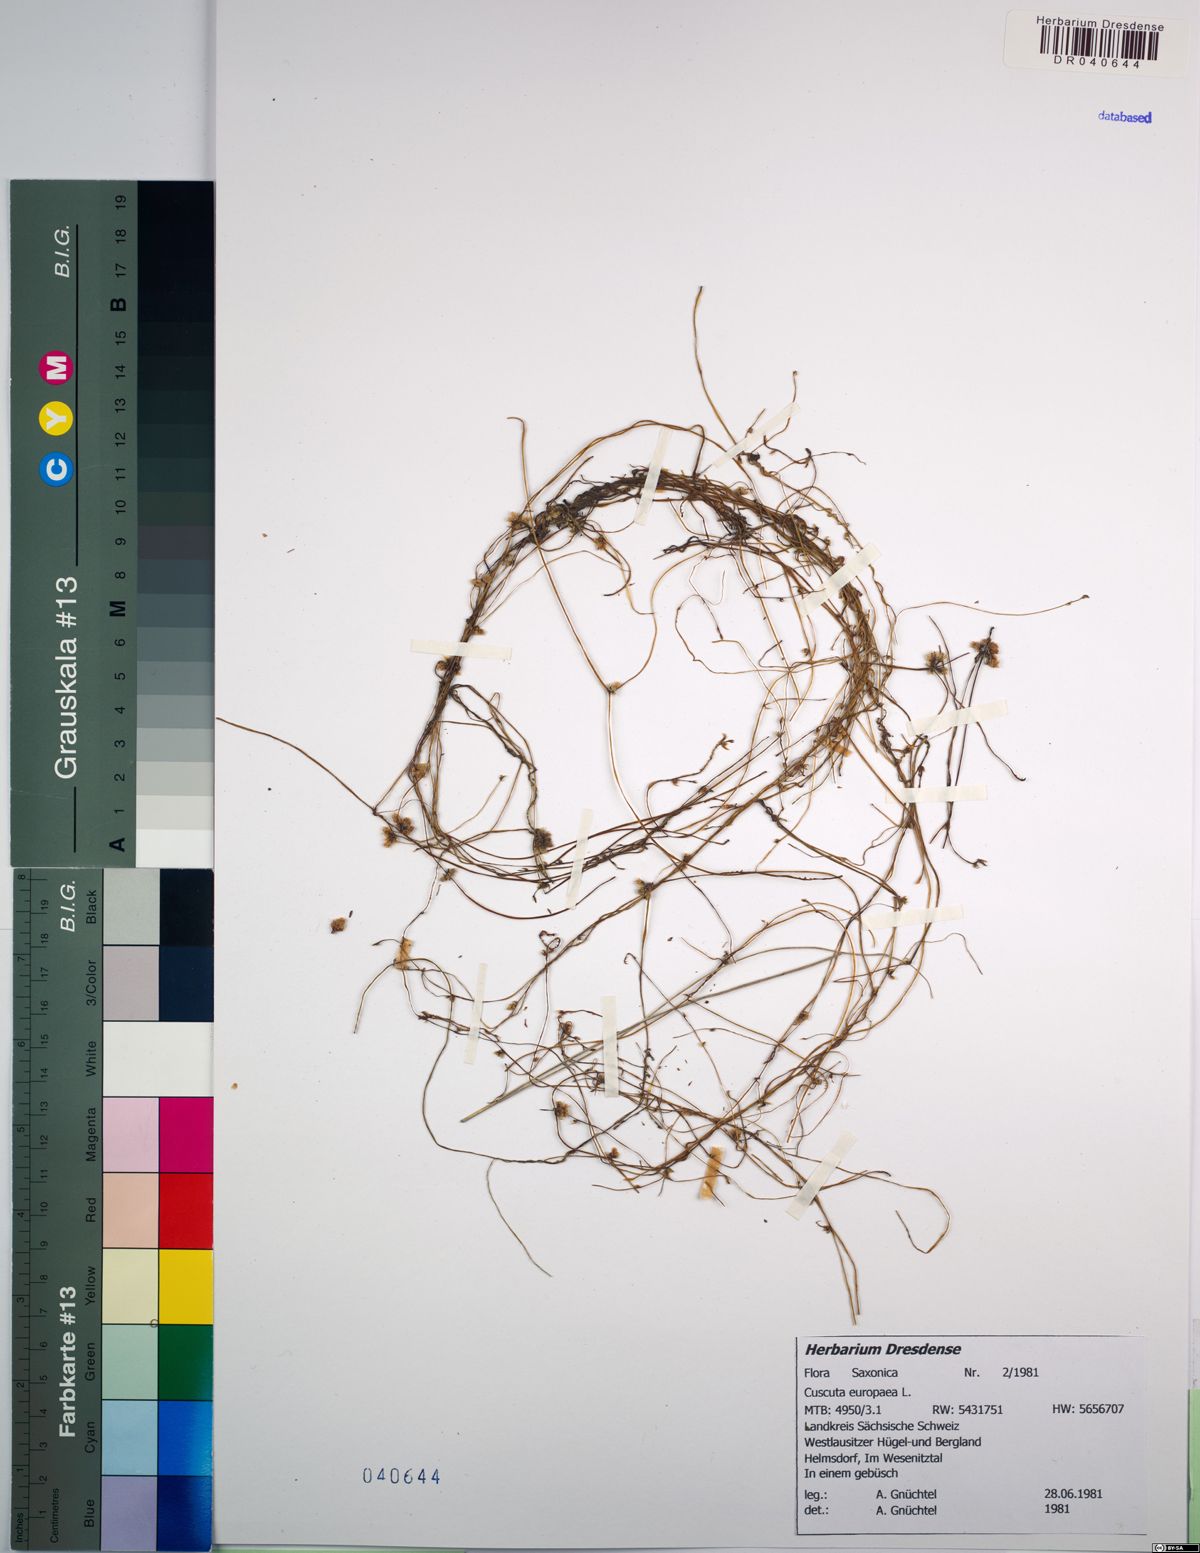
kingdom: Plantae
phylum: Tracheophyta
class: Magnoliopsida
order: Solanales
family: Convolvulaceae
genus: Cuscuta
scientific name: Cuscuta europaea
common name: Greater dodder
